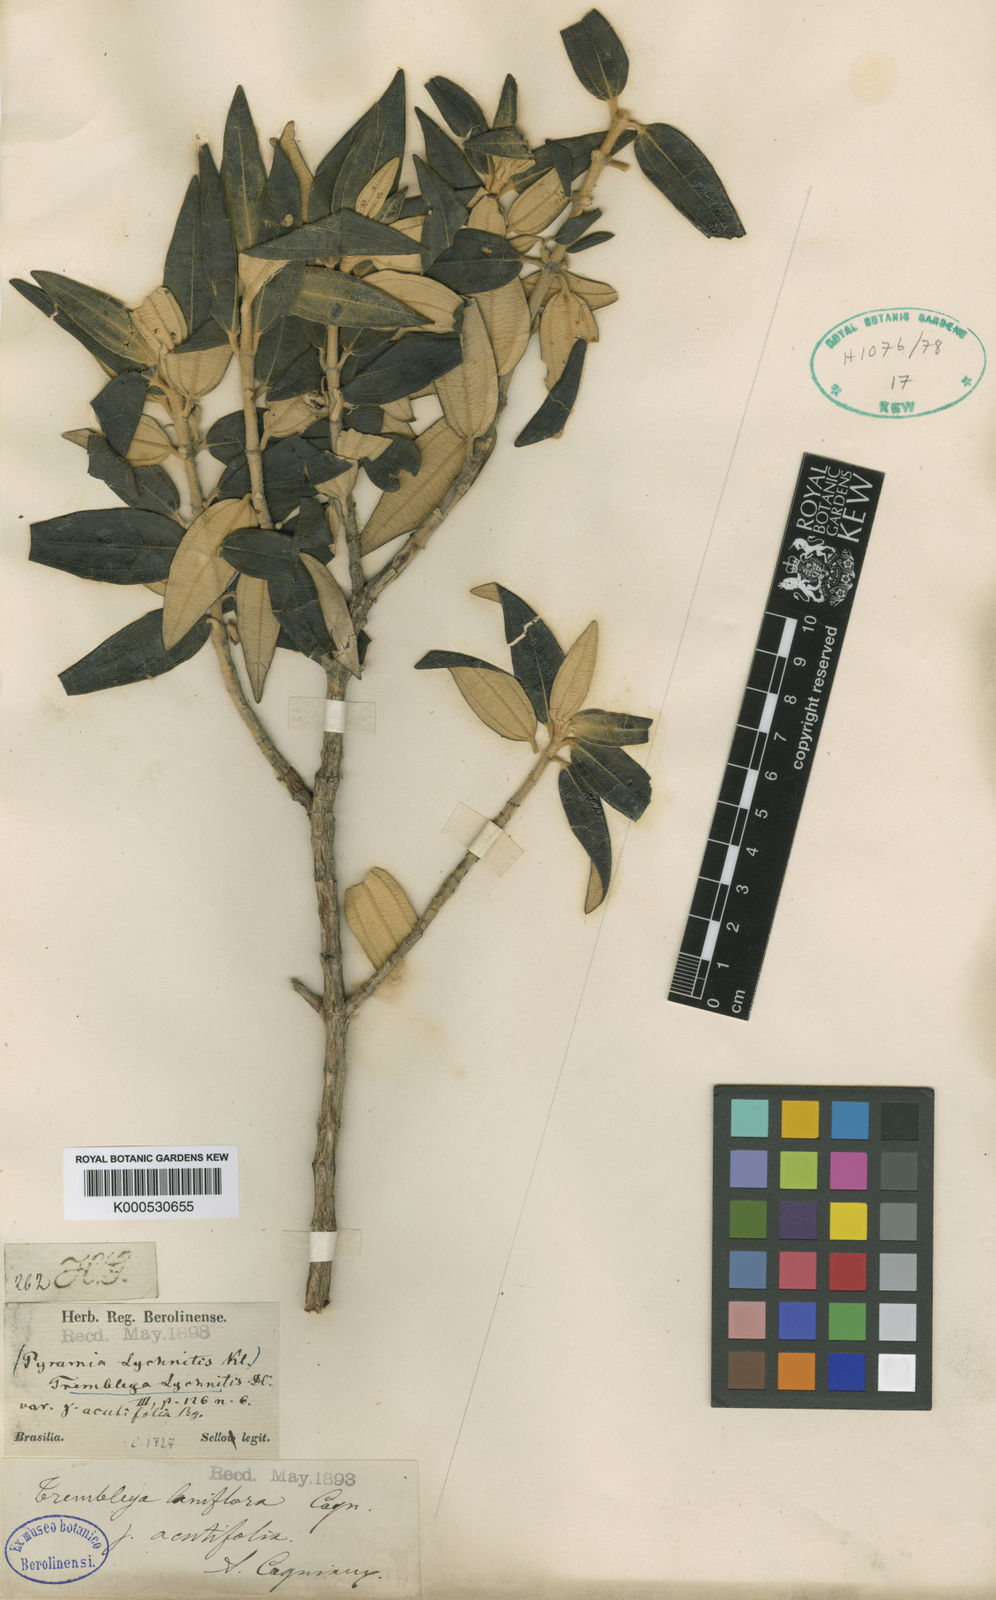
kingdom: Plantae
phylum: Tracheophyta
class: Magnoliopsida
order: Myrtales
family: Melastomataceae
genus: Microlicia
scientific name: Microlicia laniflora
